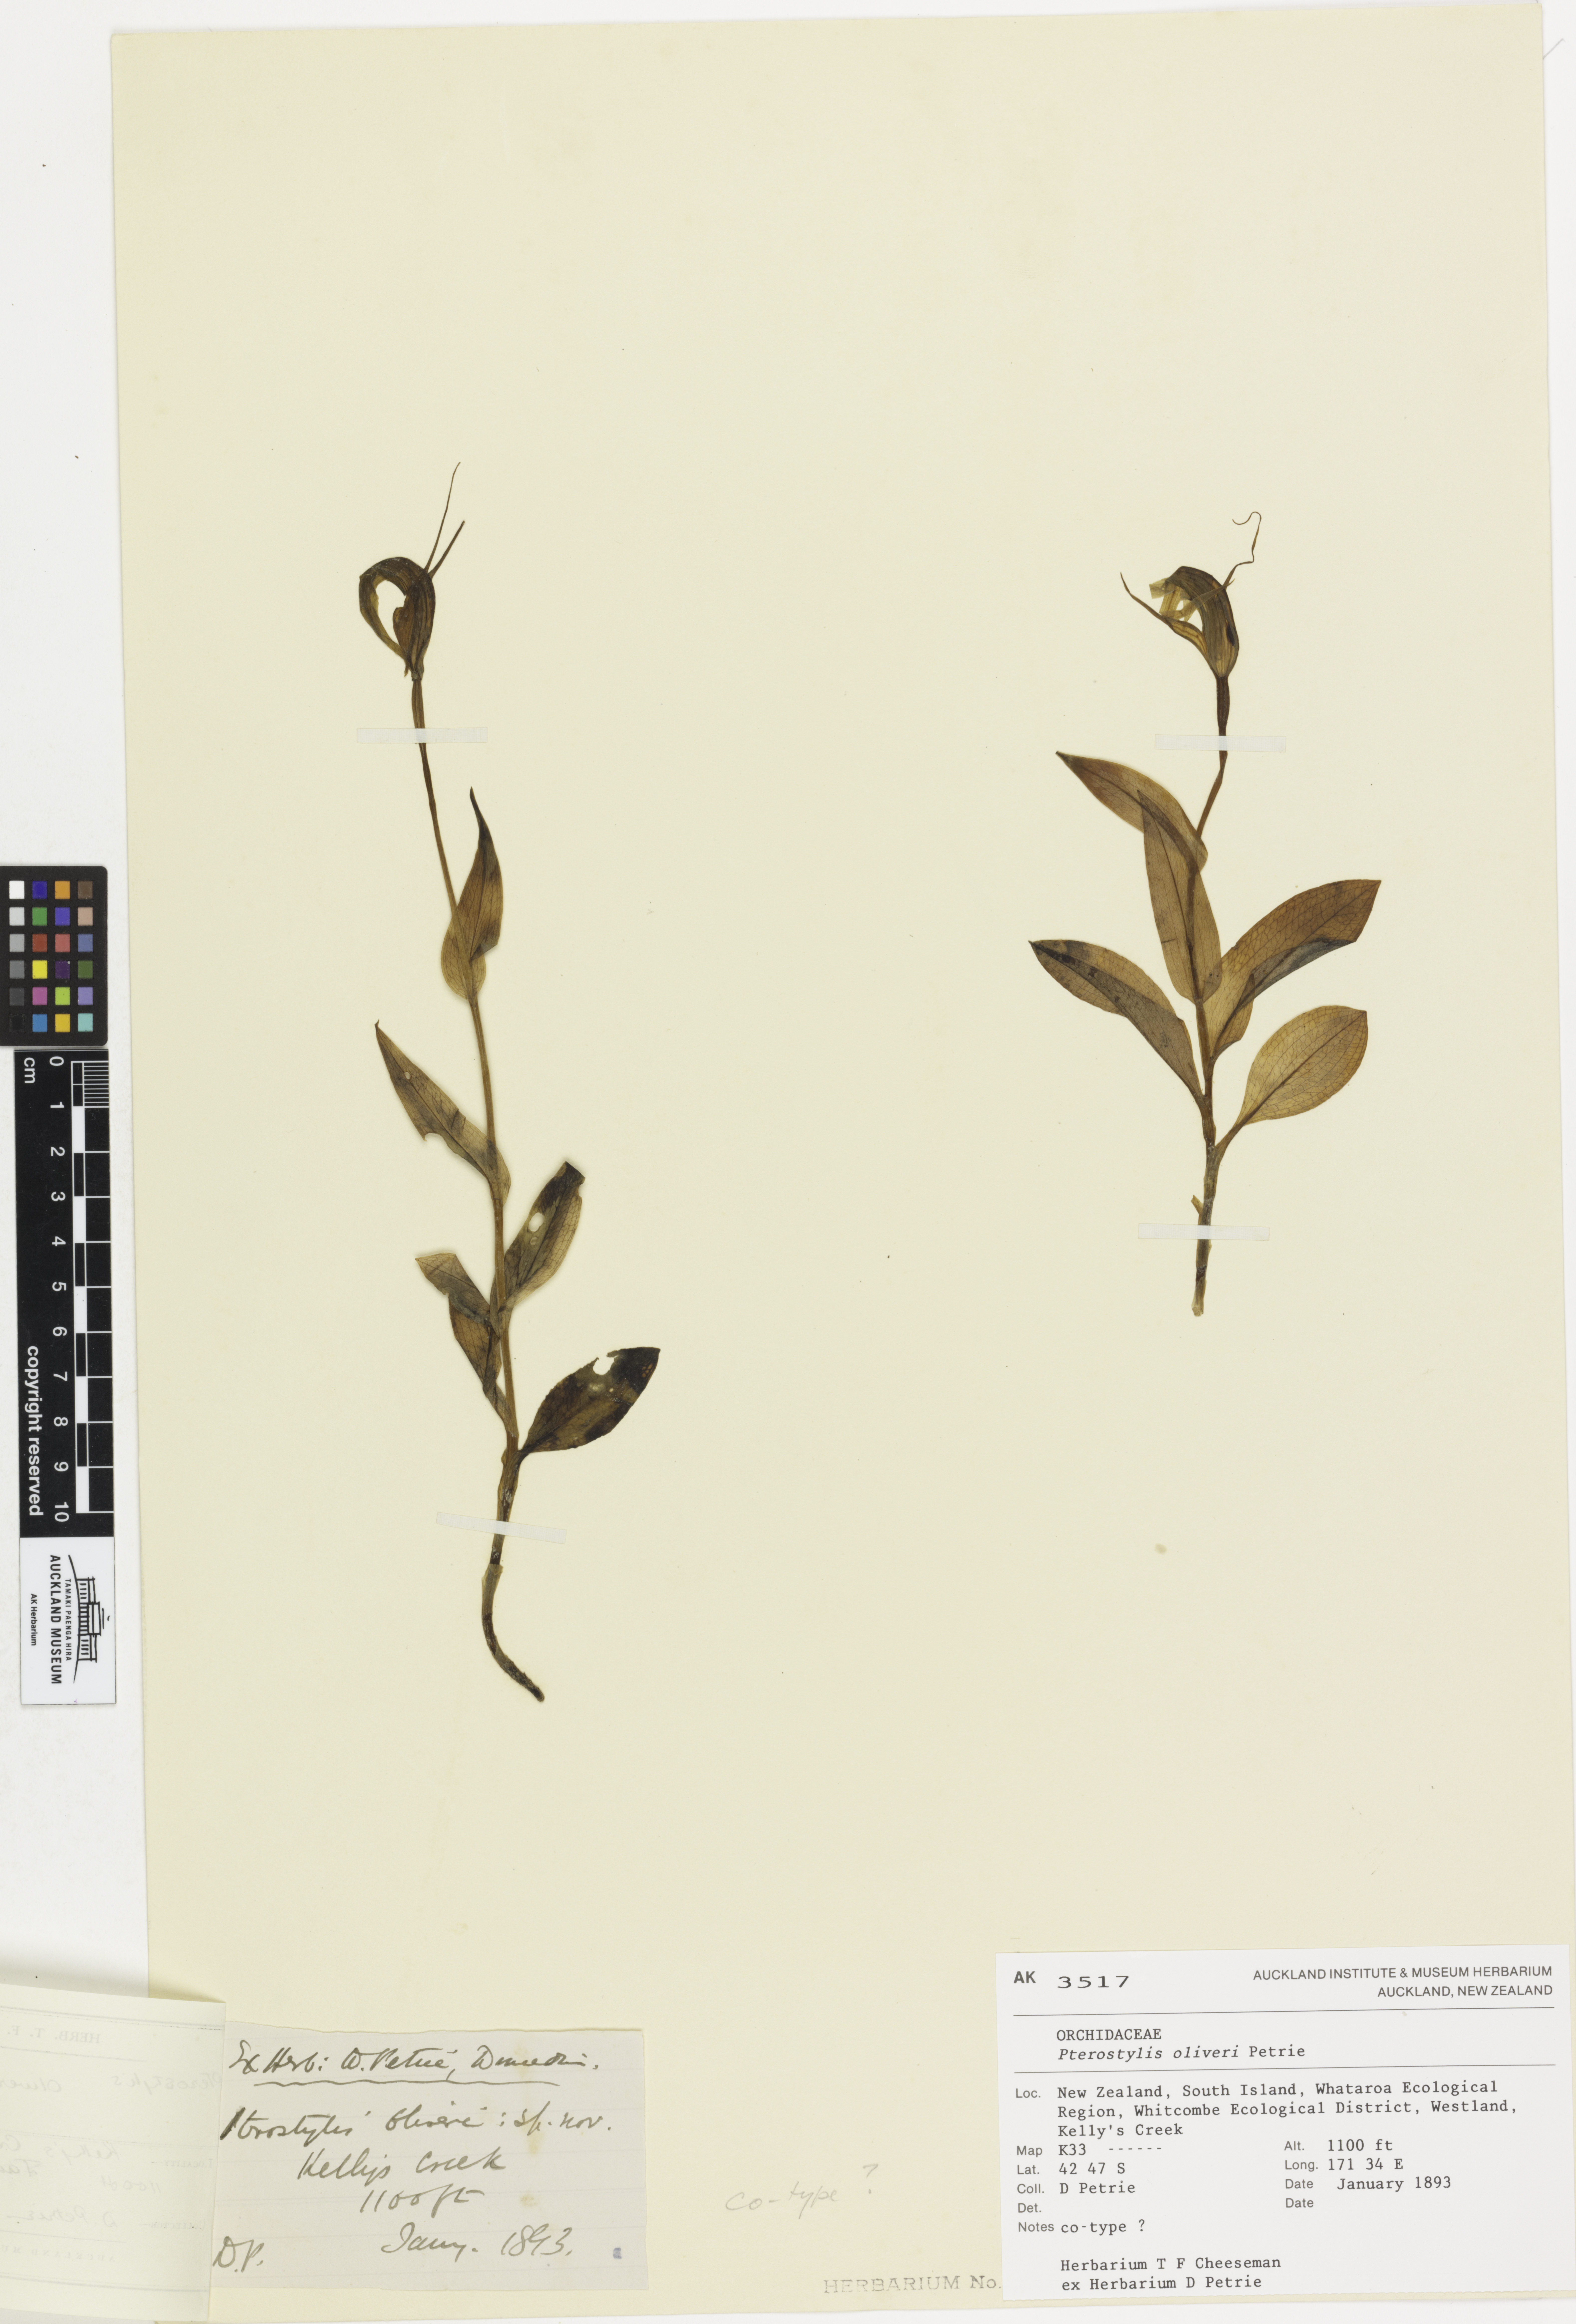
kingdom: Plantae
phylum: Tracheophyta
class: Liliopsida
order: Asparagales
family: Orchidaceae
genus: Pterostylis
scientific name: Pterostylis oliveri
